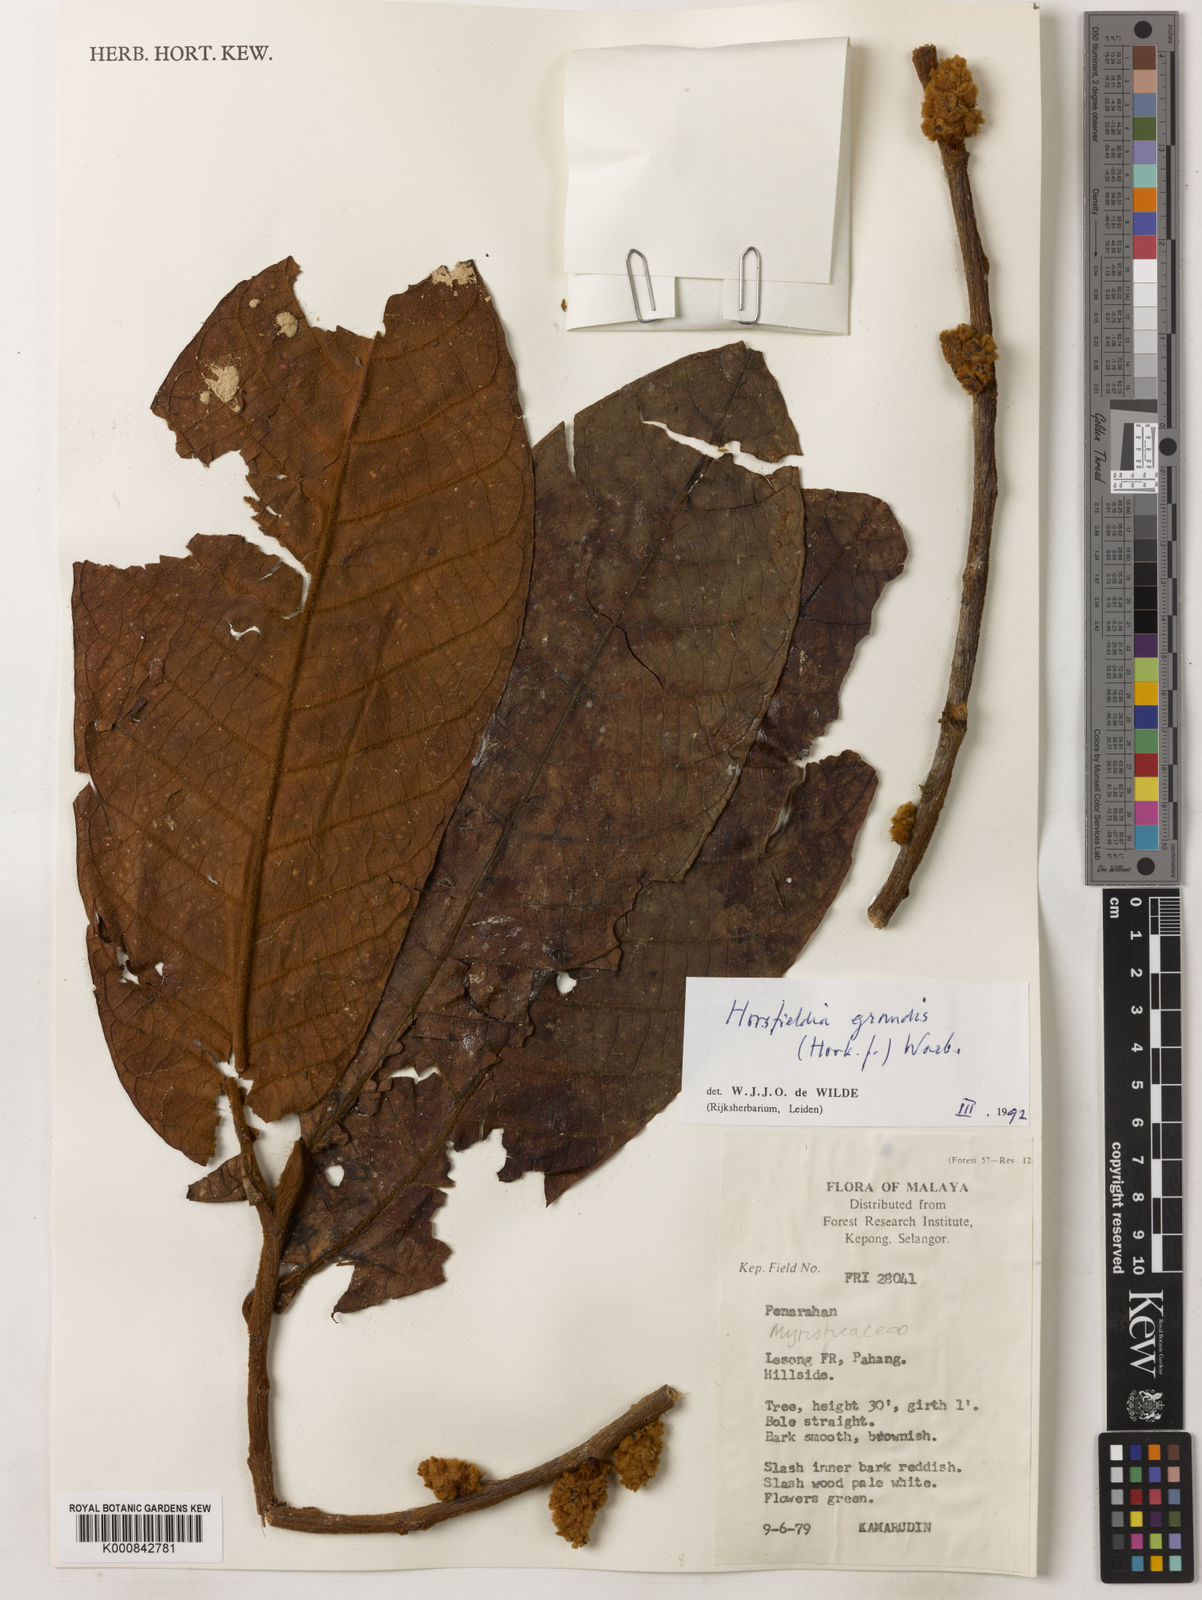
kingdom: Plantae
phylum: Tracheophyta
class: Magnoliopsida
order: Magnoliales
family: Myristicaceae
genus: Horsfieldia
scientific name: Horsfieldia grandis
